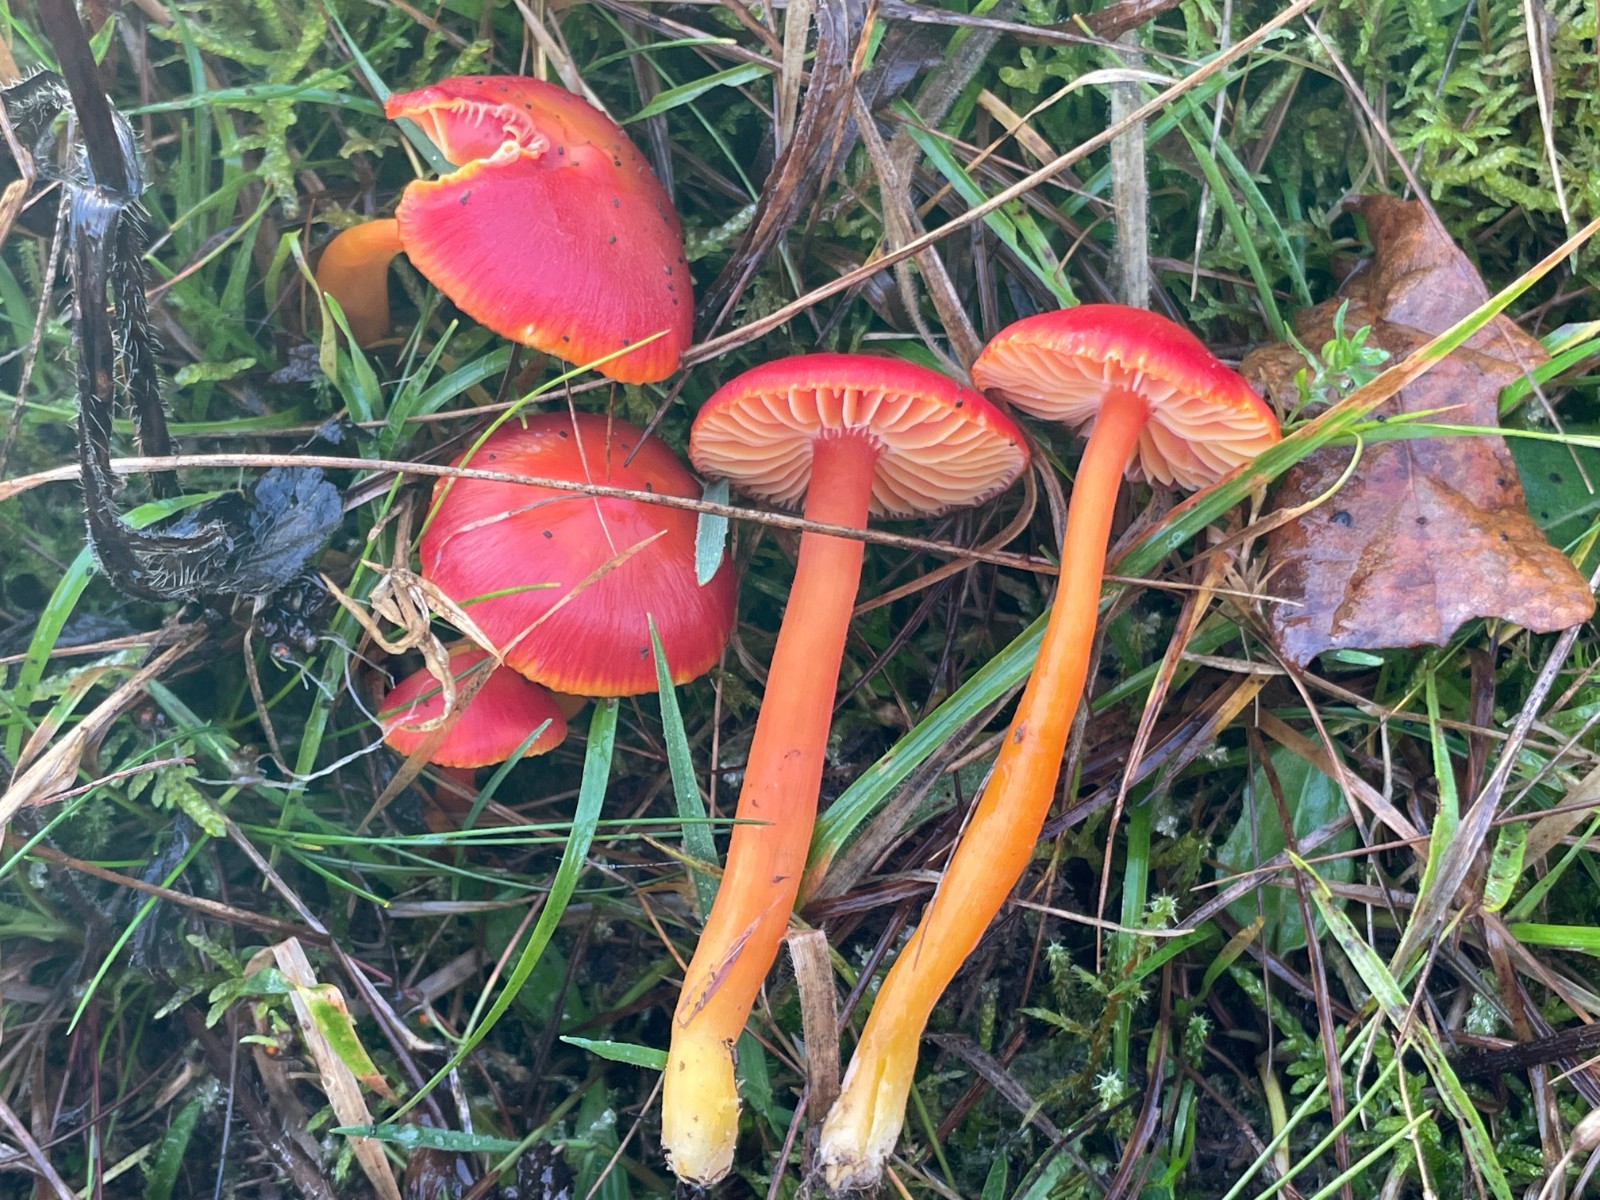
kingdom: Fungi
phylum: Basidiomycota
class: Agaricomycetes
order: Agaricales
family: Hygrophoraceae
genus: Hygrocybe
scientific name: Hygrocybe coccinea
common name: cinnober-vokshat
